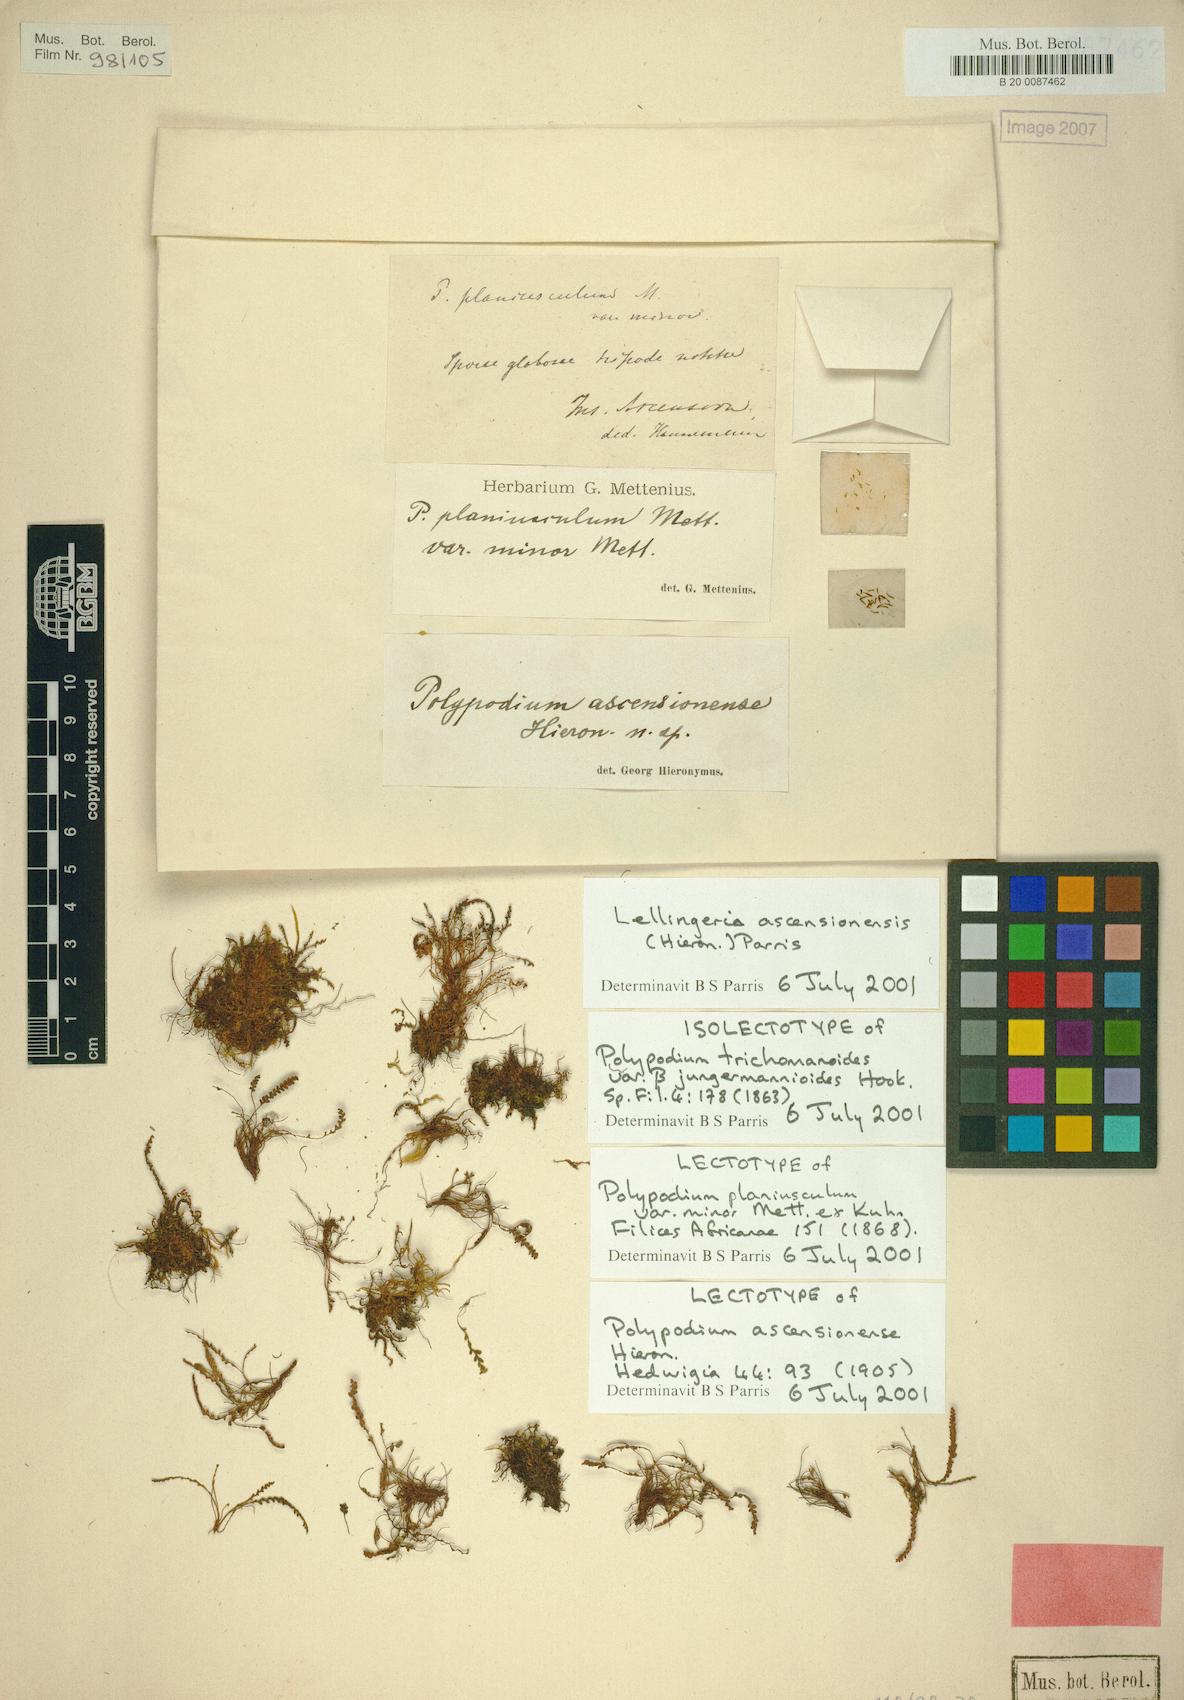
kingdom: Plantae
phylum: Tracheophyta
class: Polypodiopsida
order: Polypodiales
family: Polypodiaceae
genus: Stenogrammitis
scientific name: Stenogrammitis ascensionensis
